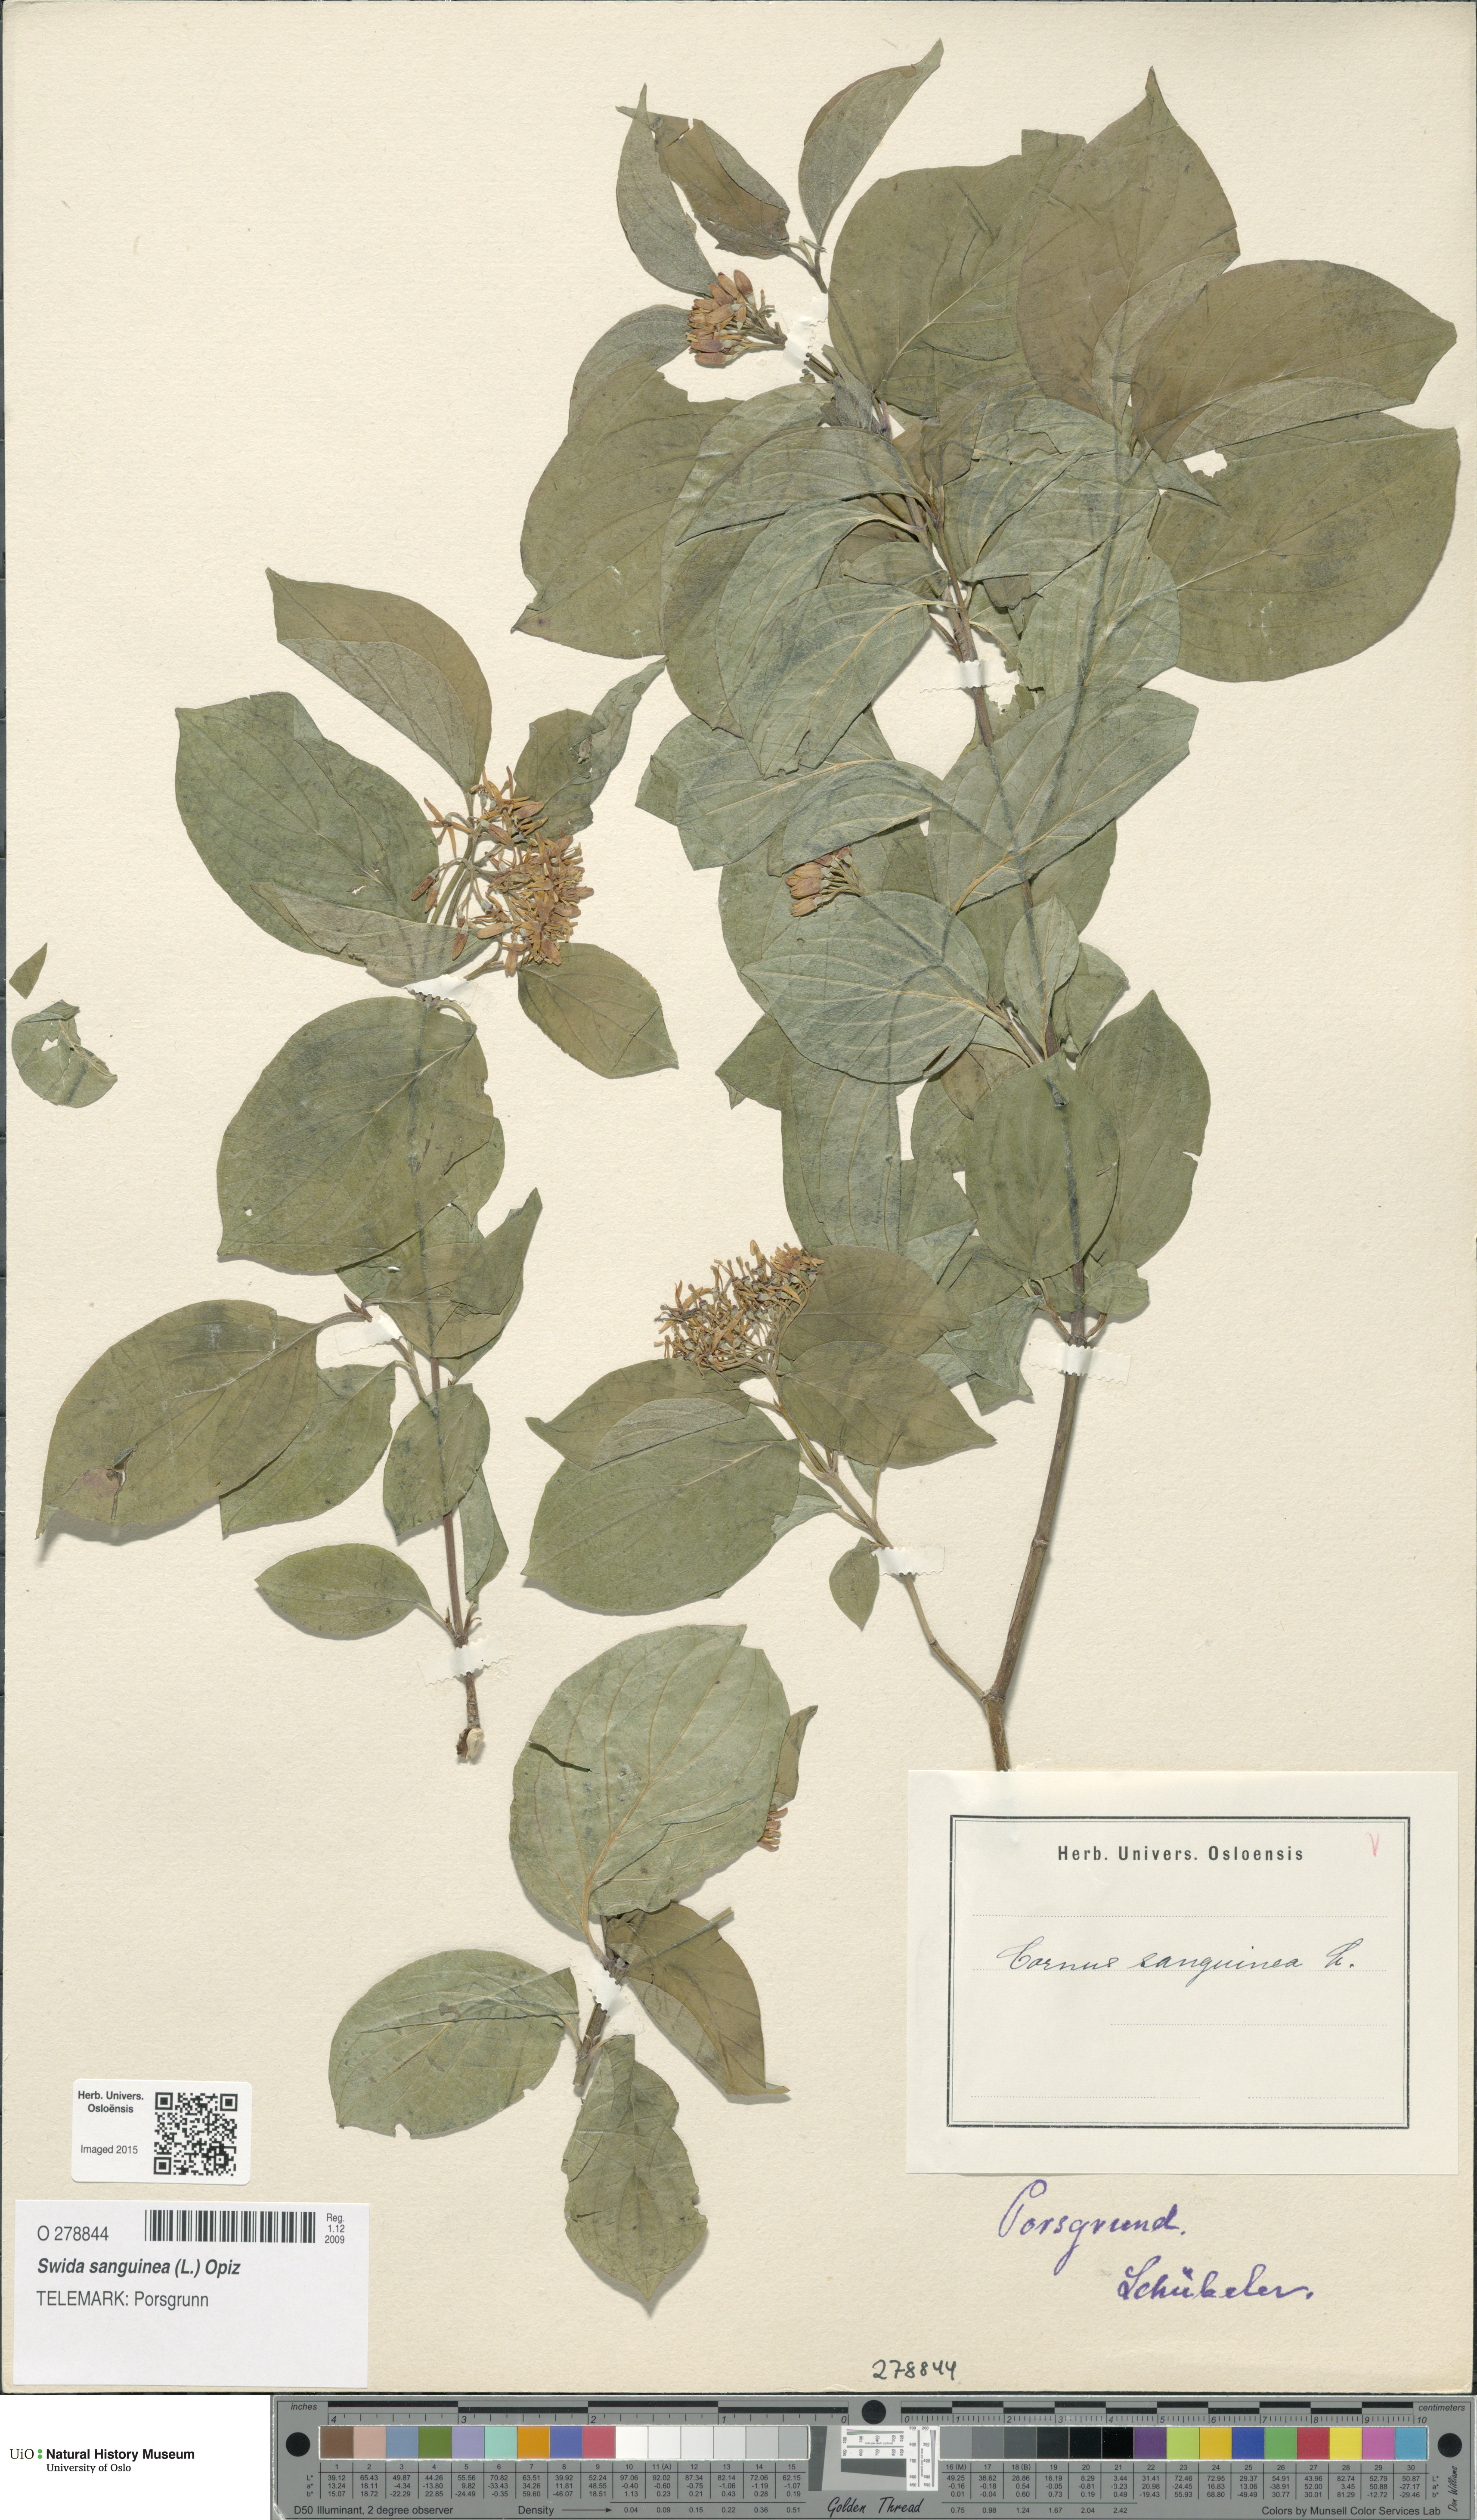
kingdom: Plantae
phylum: Tracheophyta
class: Magnoliopsida
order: Cornales
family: Cornaceae
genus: Cornus
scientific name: Cornus sanguinea
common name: Dogwood
